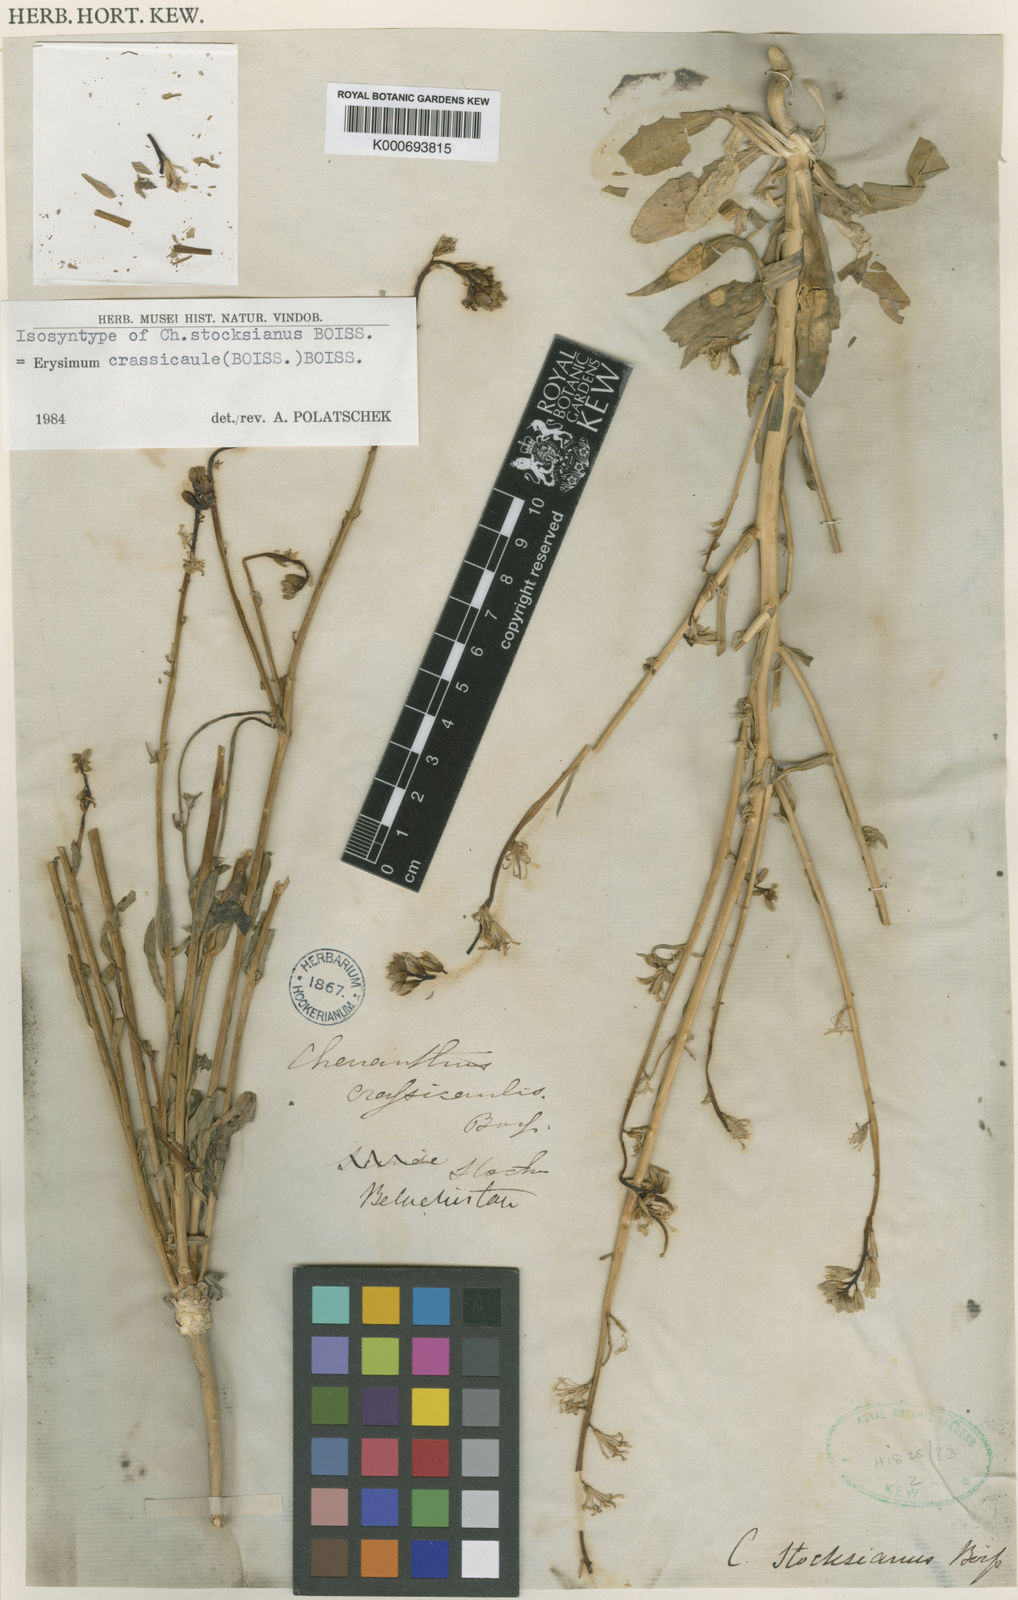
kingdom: Plantae
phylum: Tracheophyta
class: Magnoliopsida
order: Brassicales
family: Brassicaceae
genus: Erysimum
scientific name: Erysimum crassicaule
